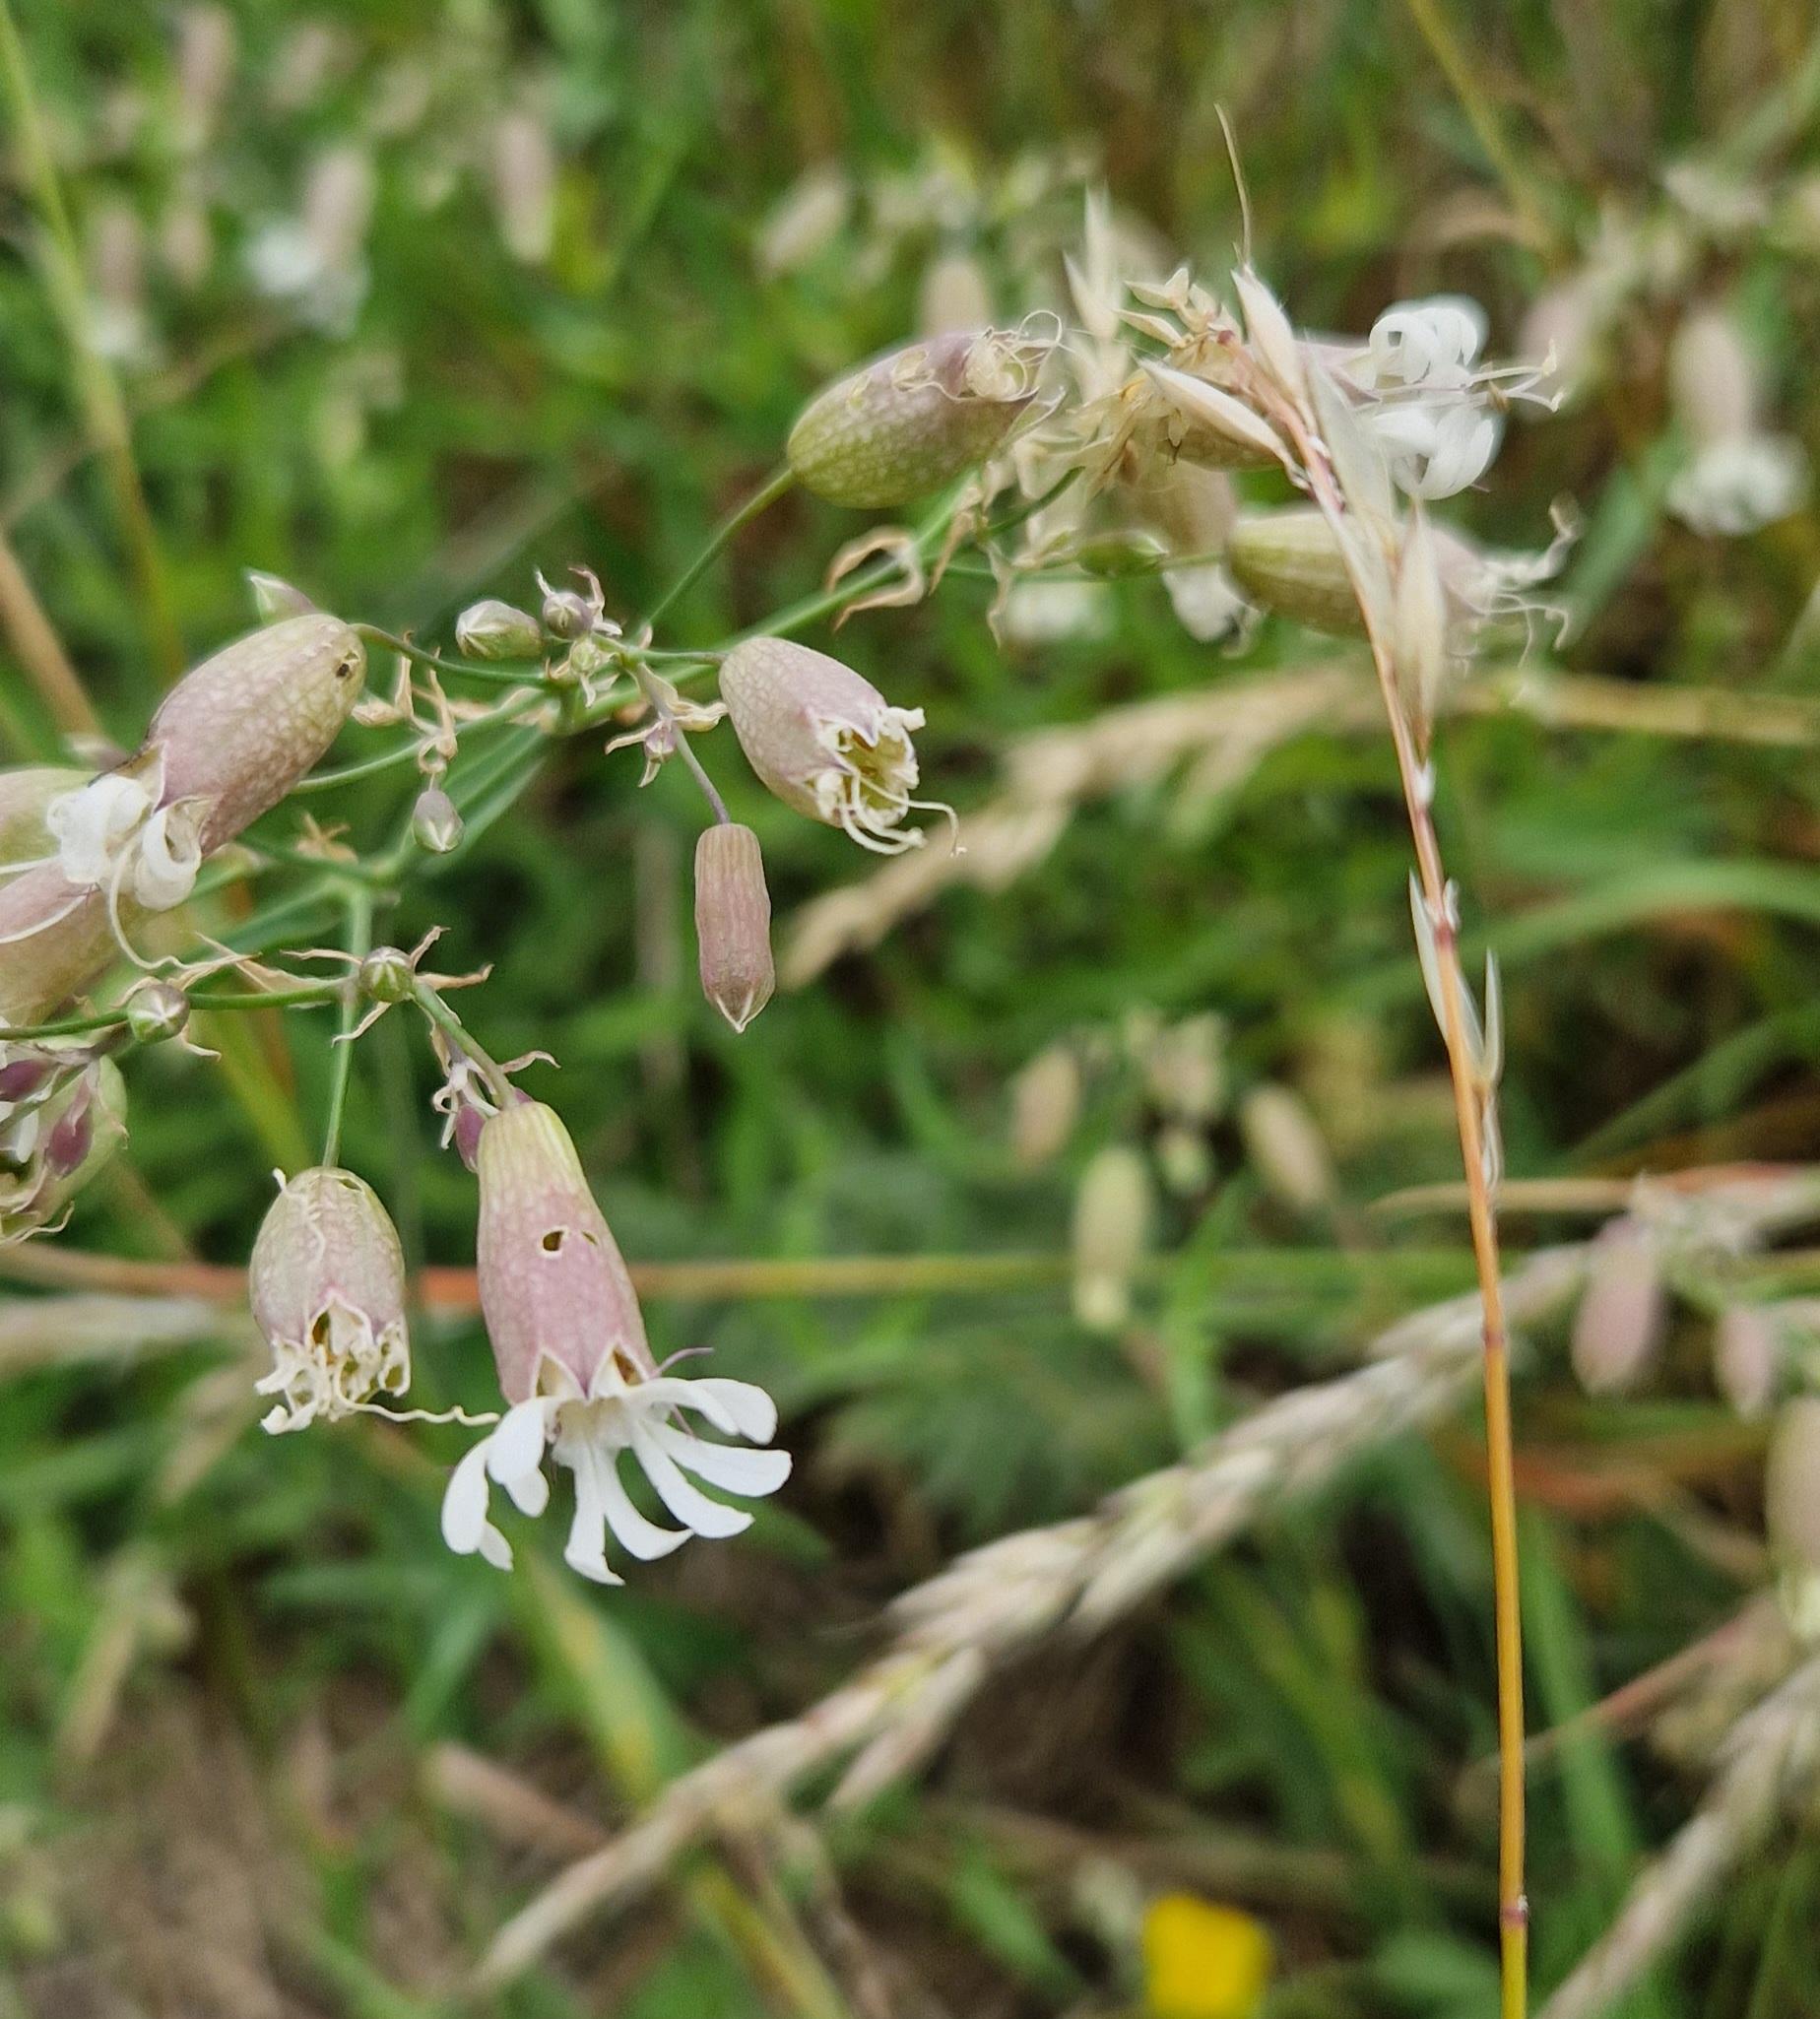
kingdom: Plantae
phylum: Tracheophyta
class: Magnoliopsida
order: Caryophyllales
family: Caryophyllaceae
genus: Silene
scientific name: Silene vulgaris
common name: Blæresmælde
